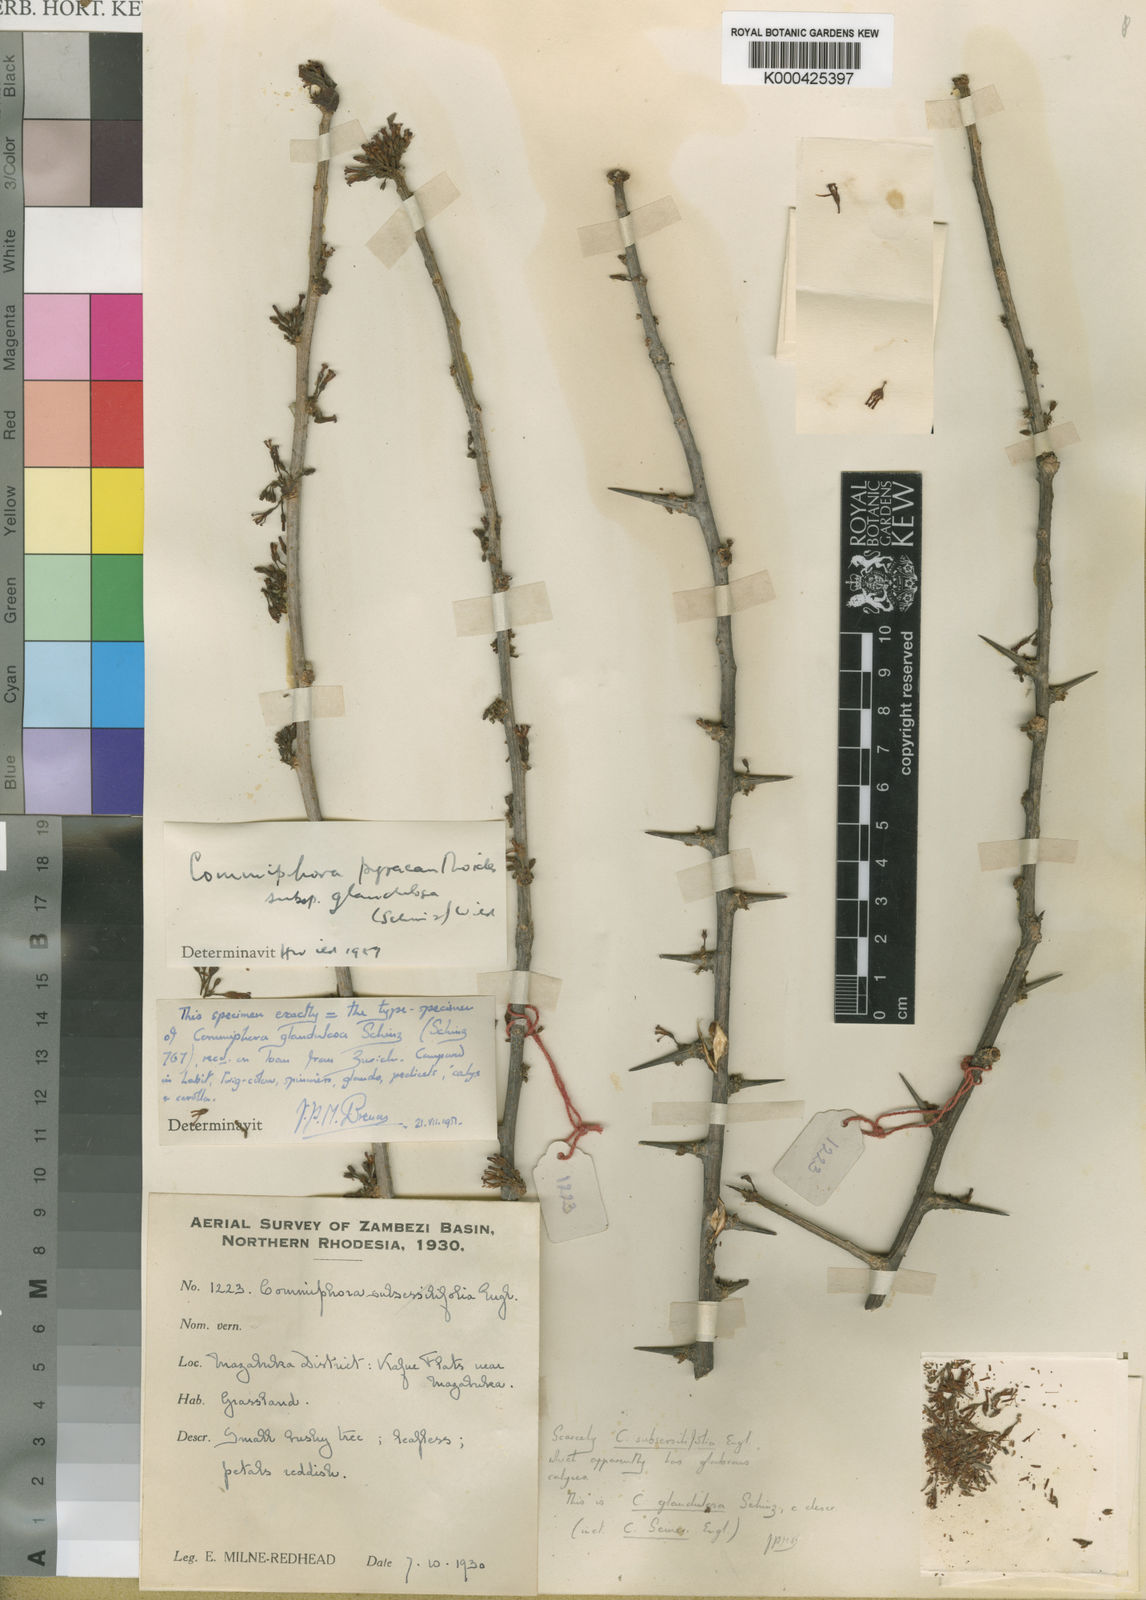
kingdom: Plantae
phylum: Tracheophyta
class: Magnoliopsida
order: Sapindales
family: Burseraceae
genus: Commiphora
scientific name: Commiphora glandulosa
